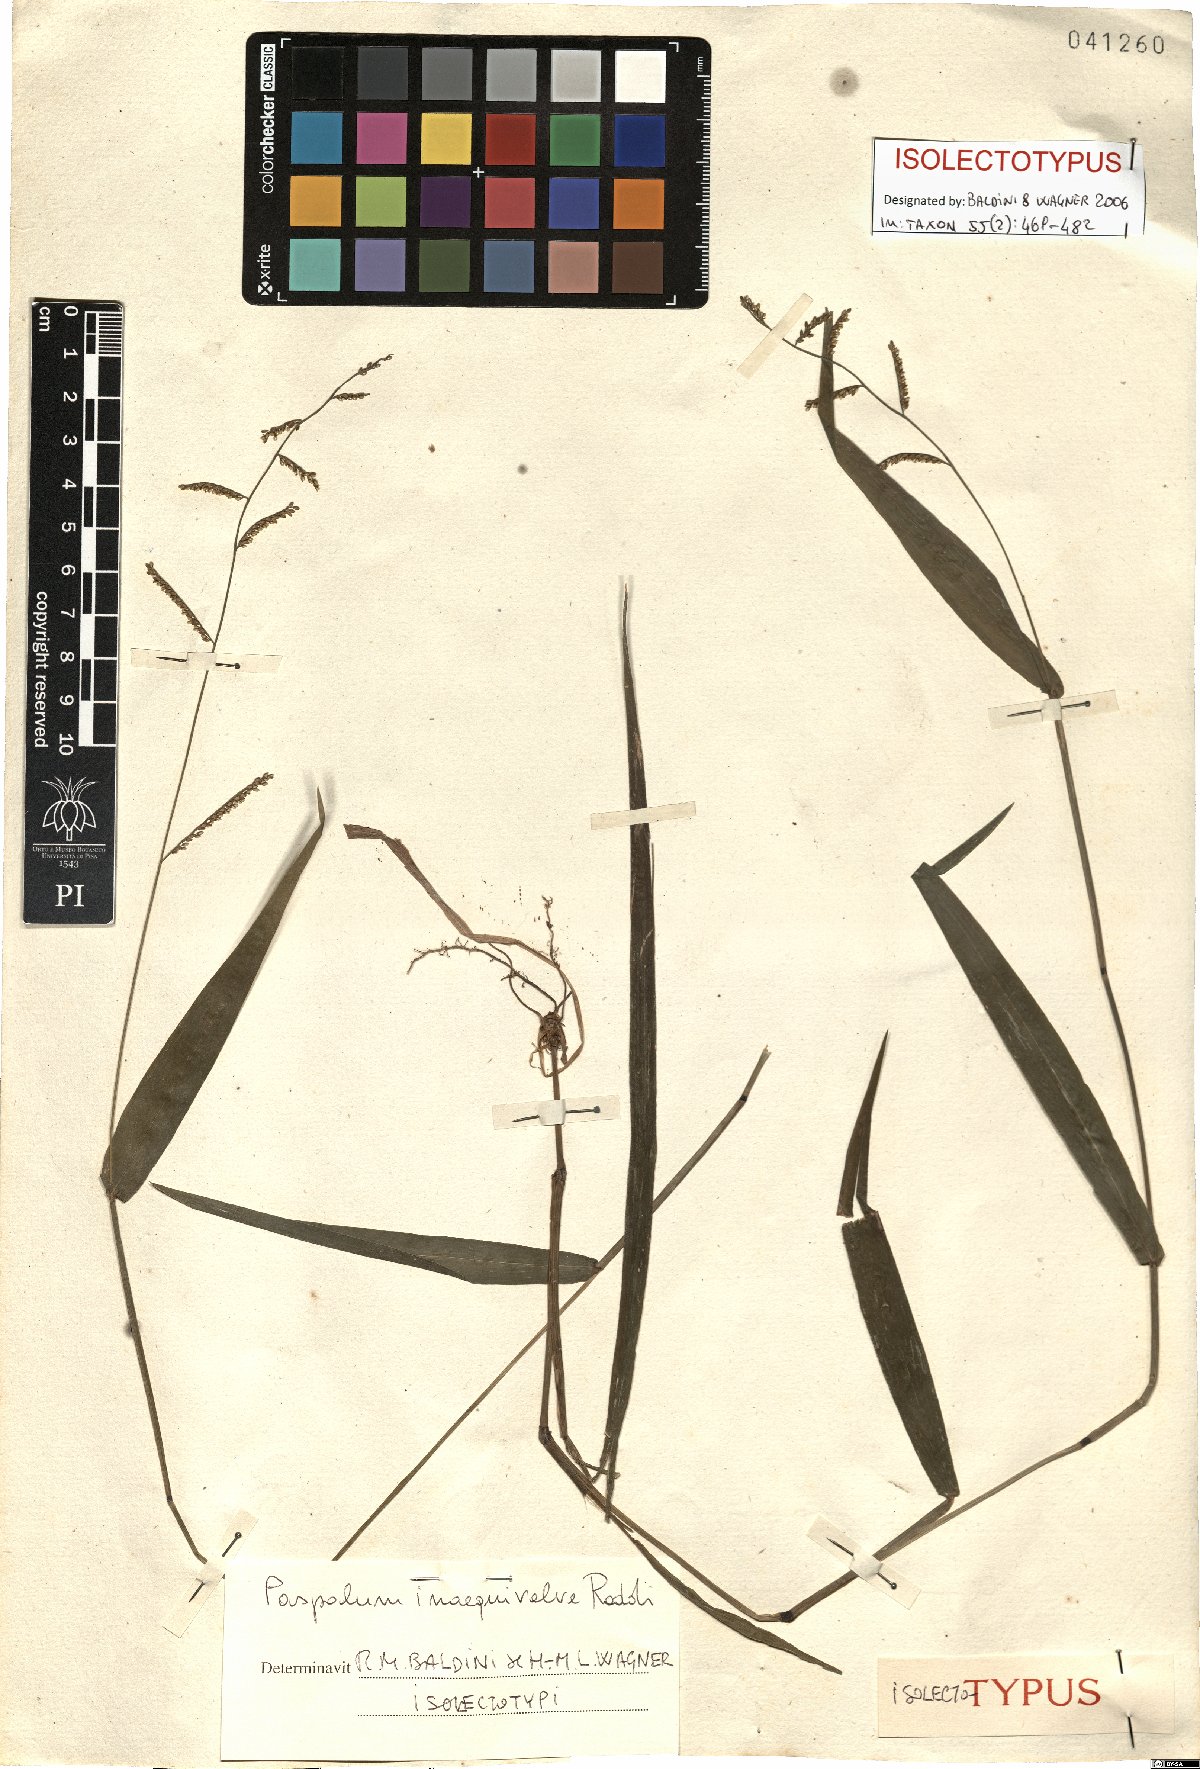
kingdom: Plantae
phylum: Tracheophyta
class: Liliopsida
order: Poales
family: Poaceae
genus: Paspalum
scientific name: Paspalum inaequivalve
